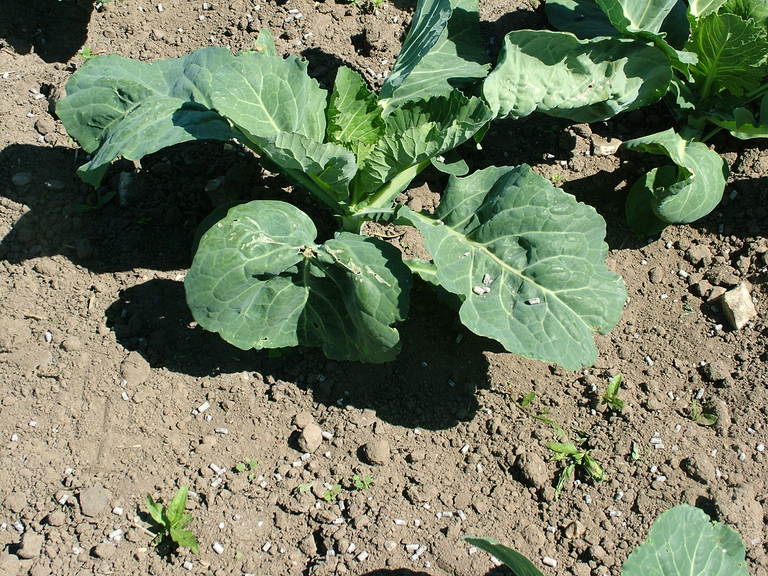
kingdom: Plantae
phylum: Tracheophyta
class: Magnoliopsida
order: Brassicales
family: Brassicaceae
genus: Brassica
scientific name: Brassica oleracea
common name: Cabbage
